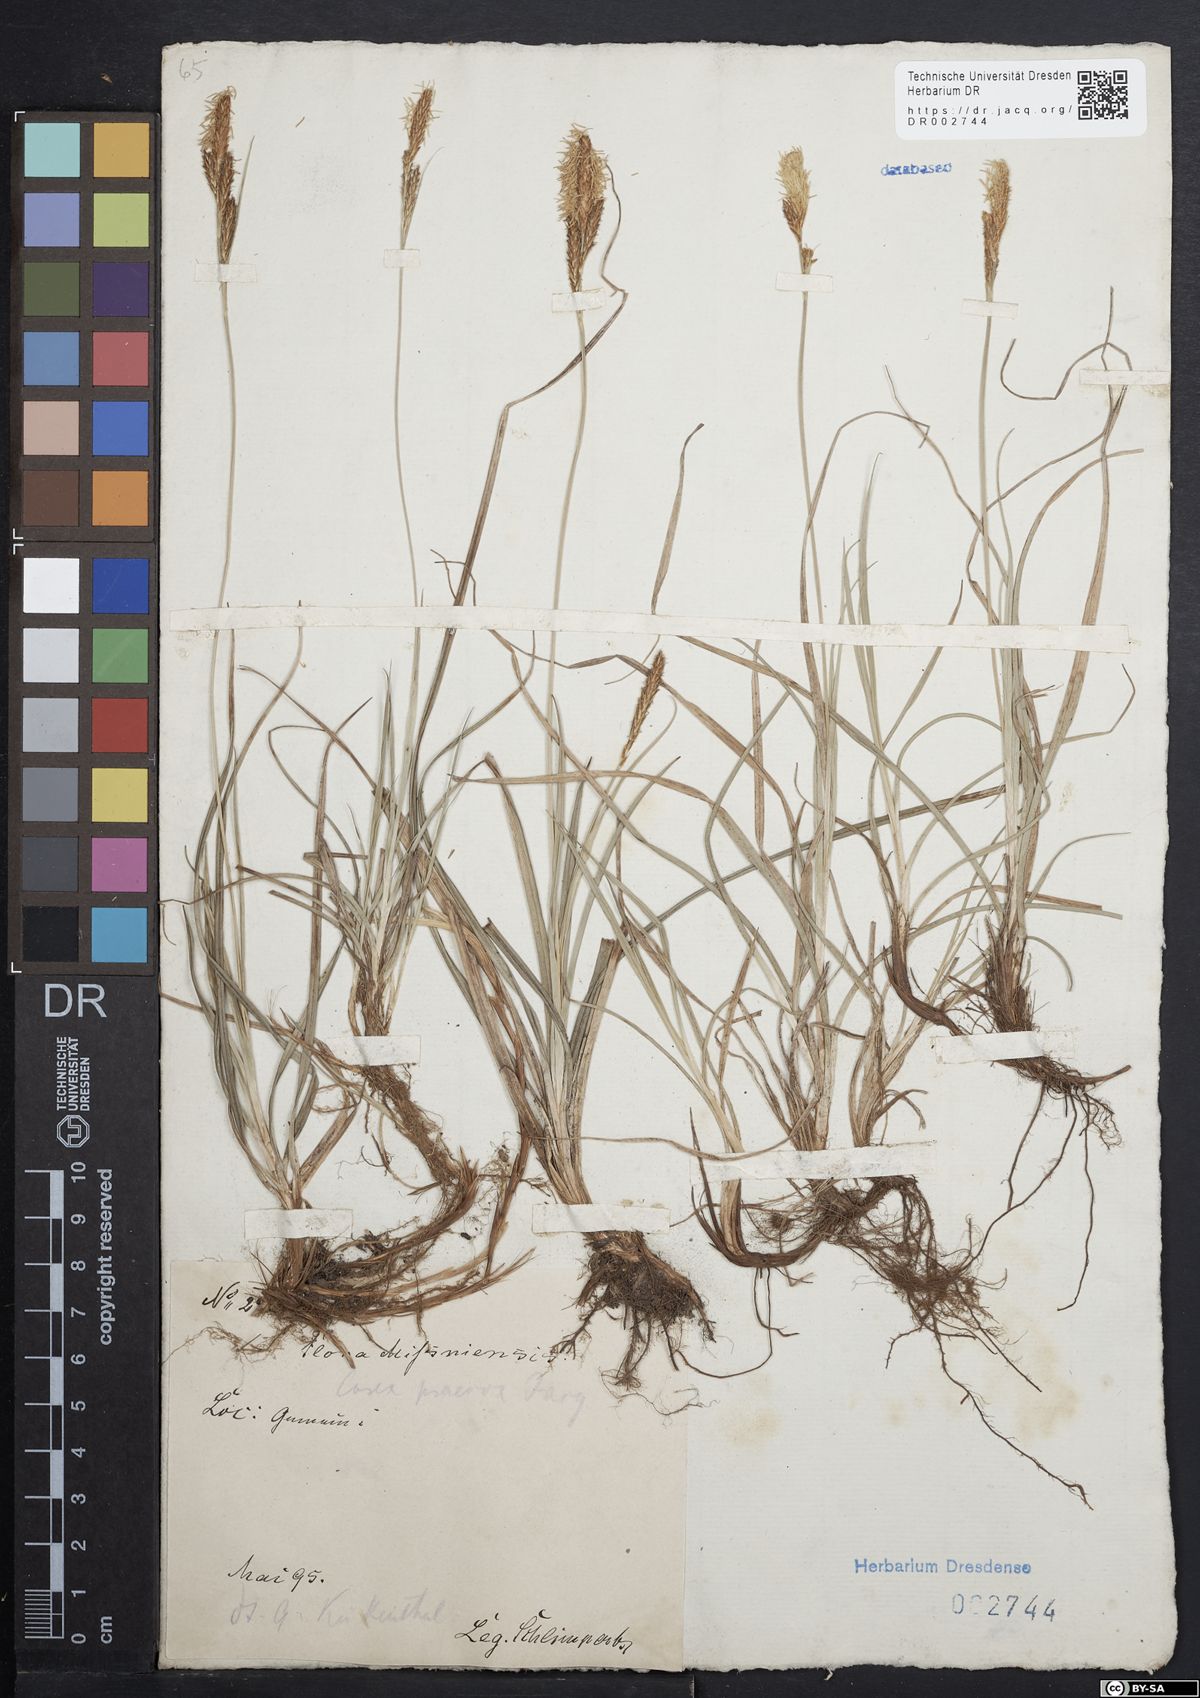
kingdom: Plantae
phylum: Tracheophyta
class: Liliopsida
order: Poales
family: Cyperaceae
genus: Carex
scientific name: Carex caryophyllea
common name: Spring sedge
